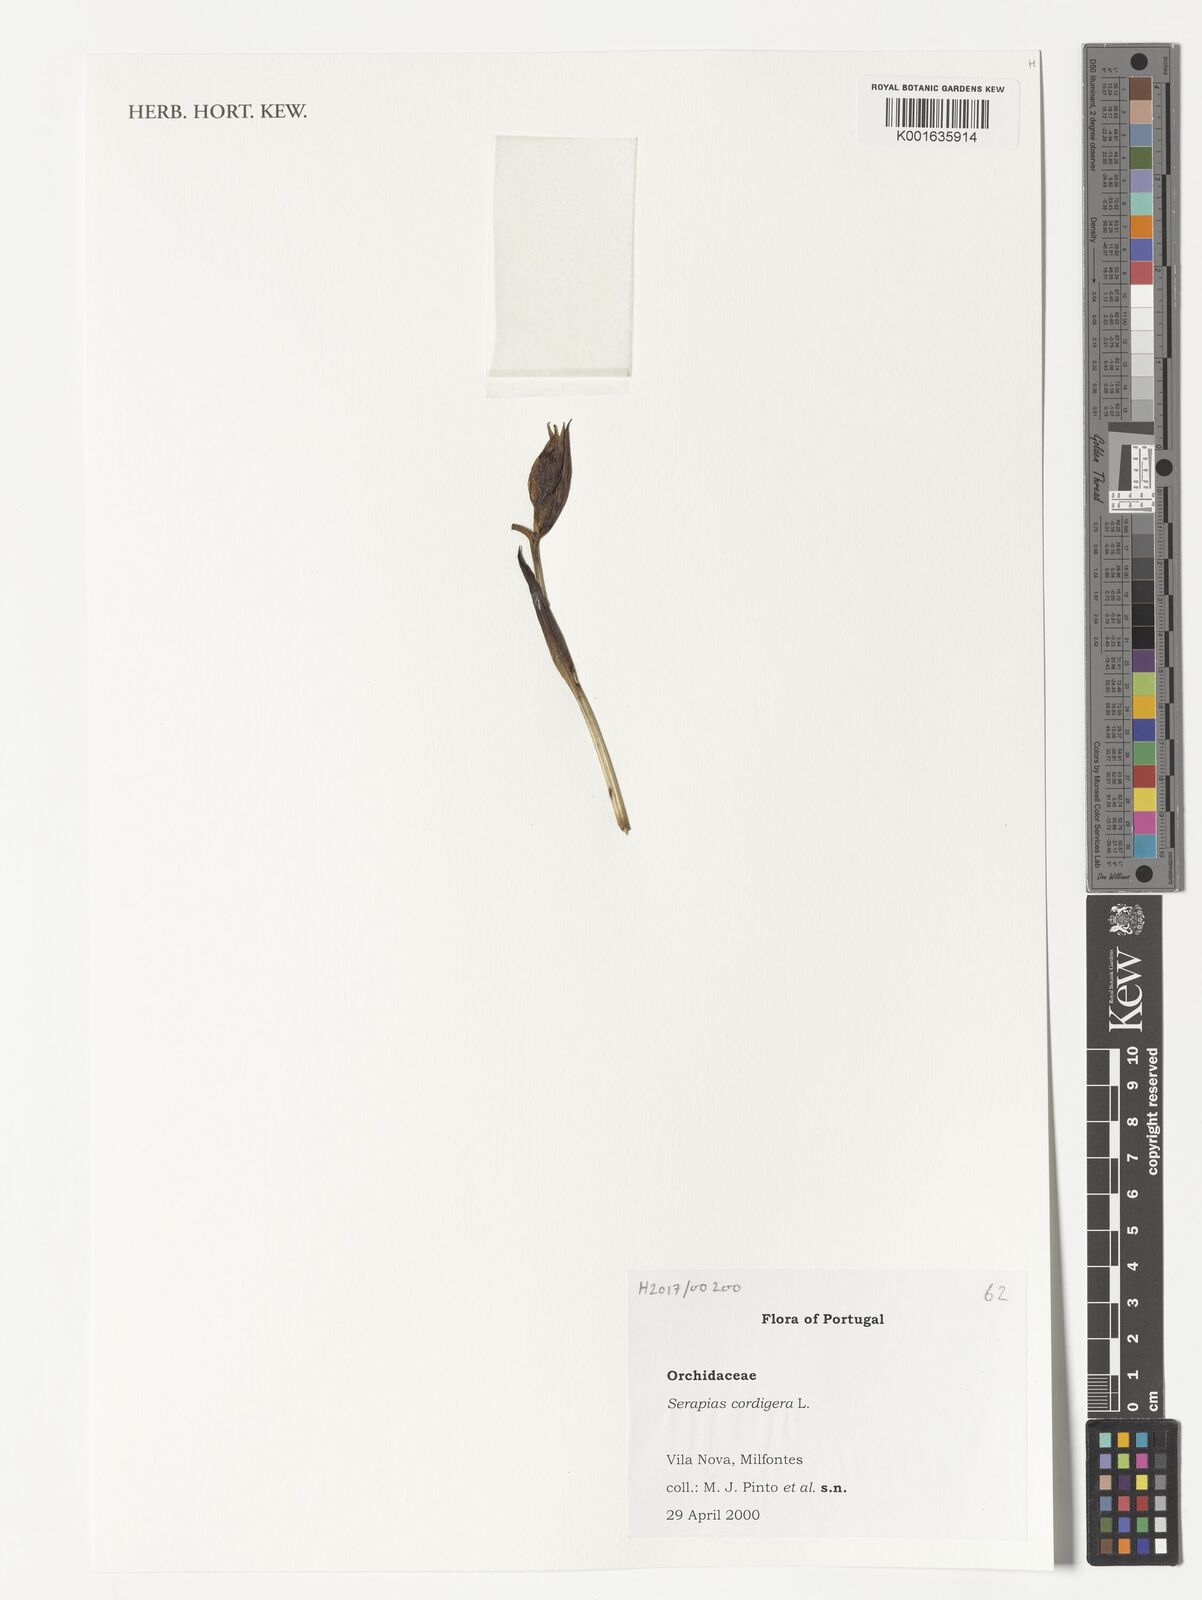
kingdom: Plantae
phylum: Tracheophyta
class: Liliopsida
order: Asparagales
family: Orchidaceae
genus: Serapias
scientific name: Serapias cordigera
